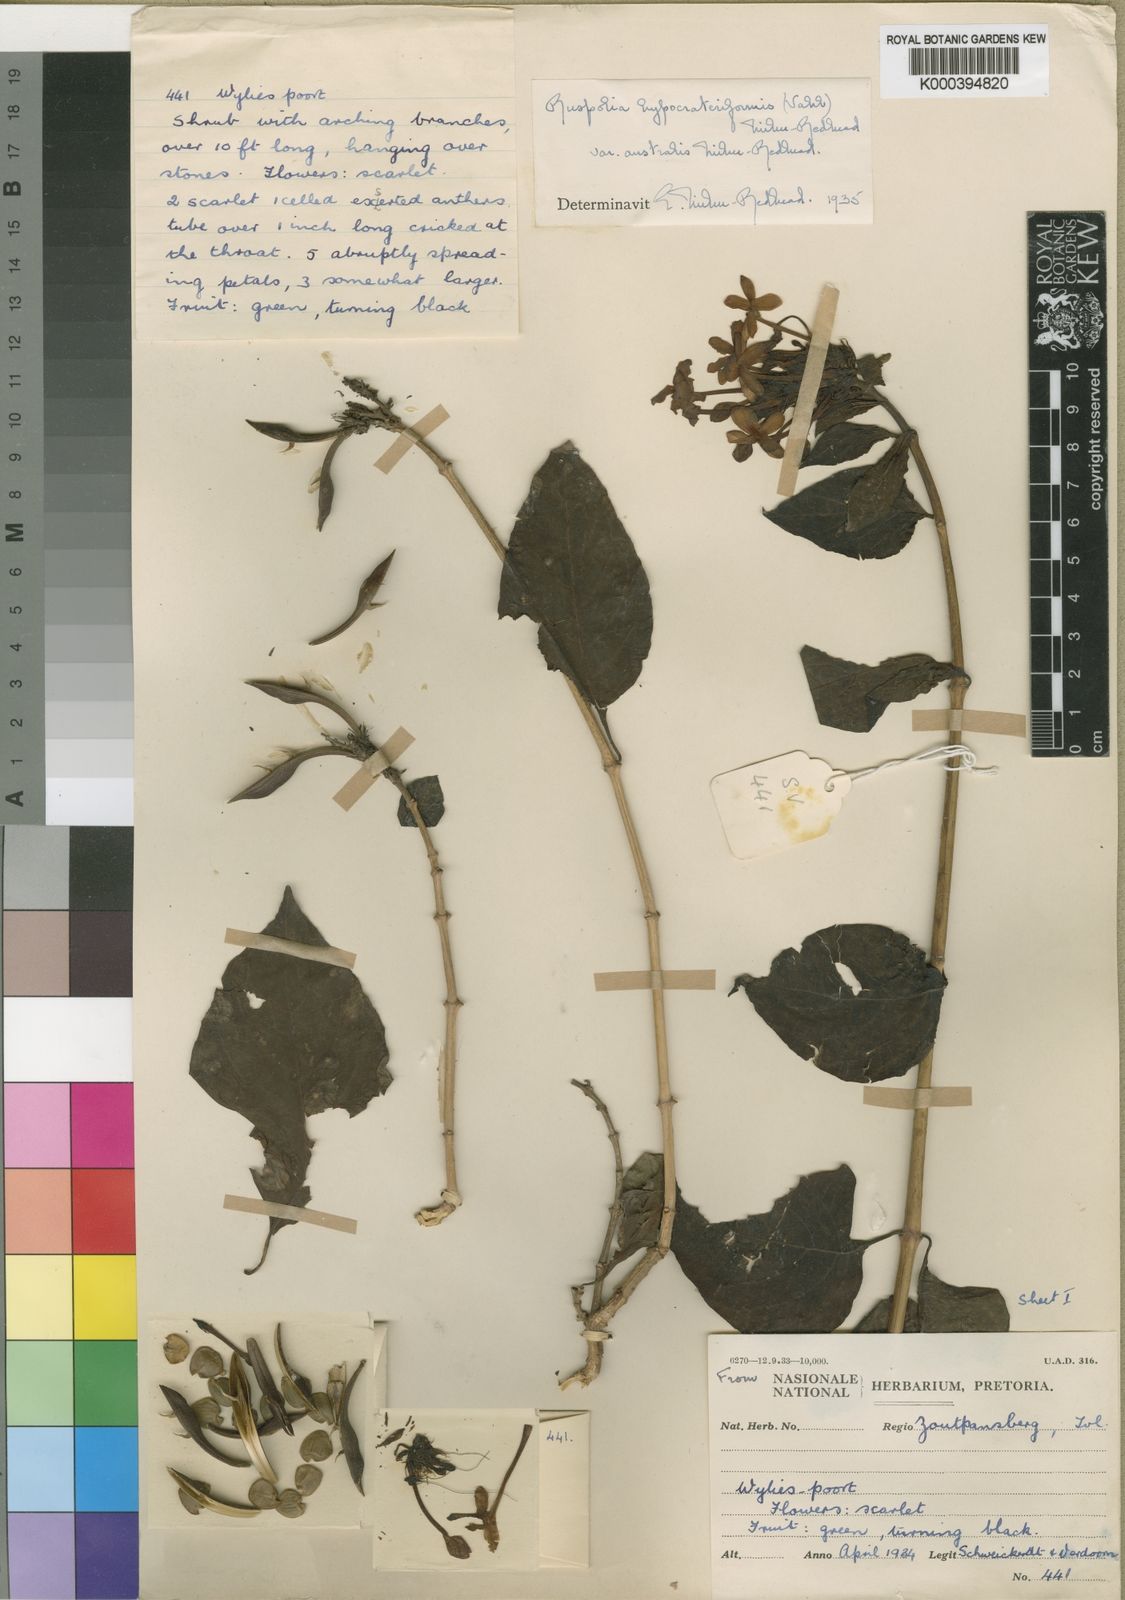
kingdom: Plantae
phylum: Tracheophyta
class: Magnoliopsida
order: Lamiales
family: Acanthaceae
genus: Ruspolia
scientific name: Ruspolia hypocrateriformis
